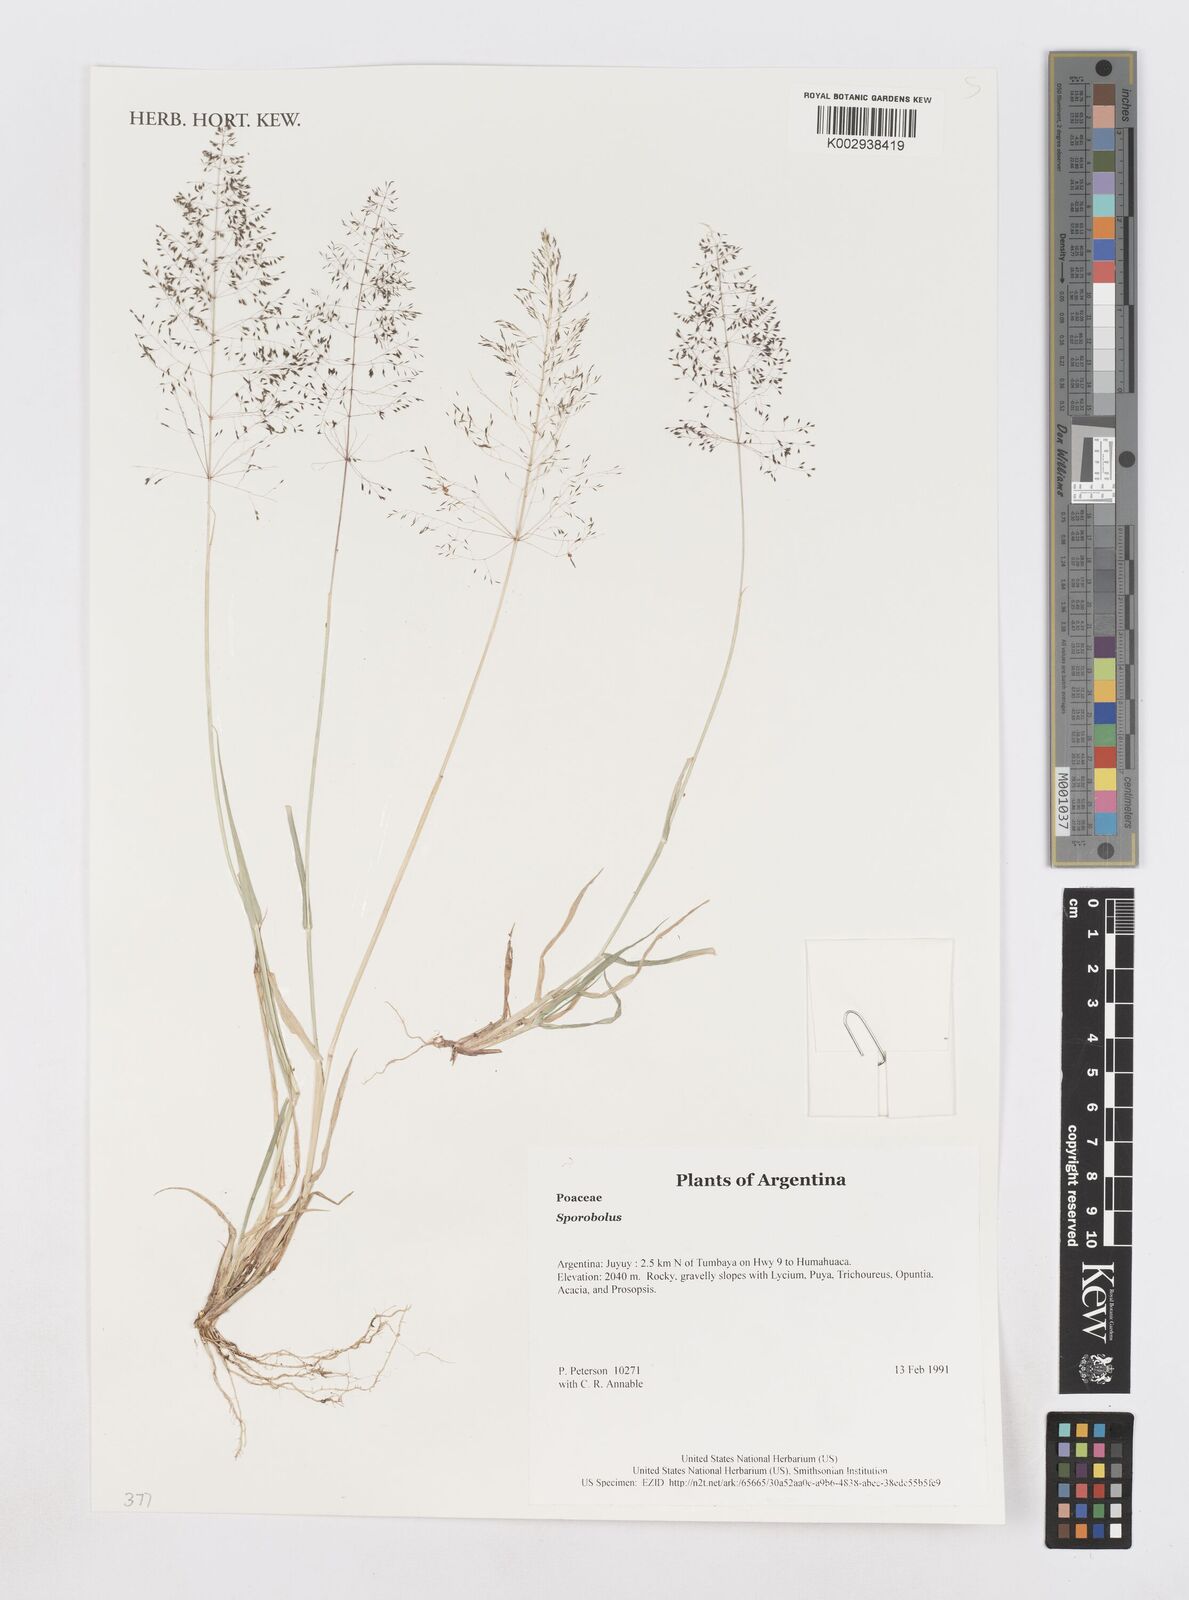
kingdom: Plantae
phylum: Tracheophyta
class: Liliopsida
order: Poales
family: Poaceae
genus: Sporobolus
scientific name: Sporobolus
